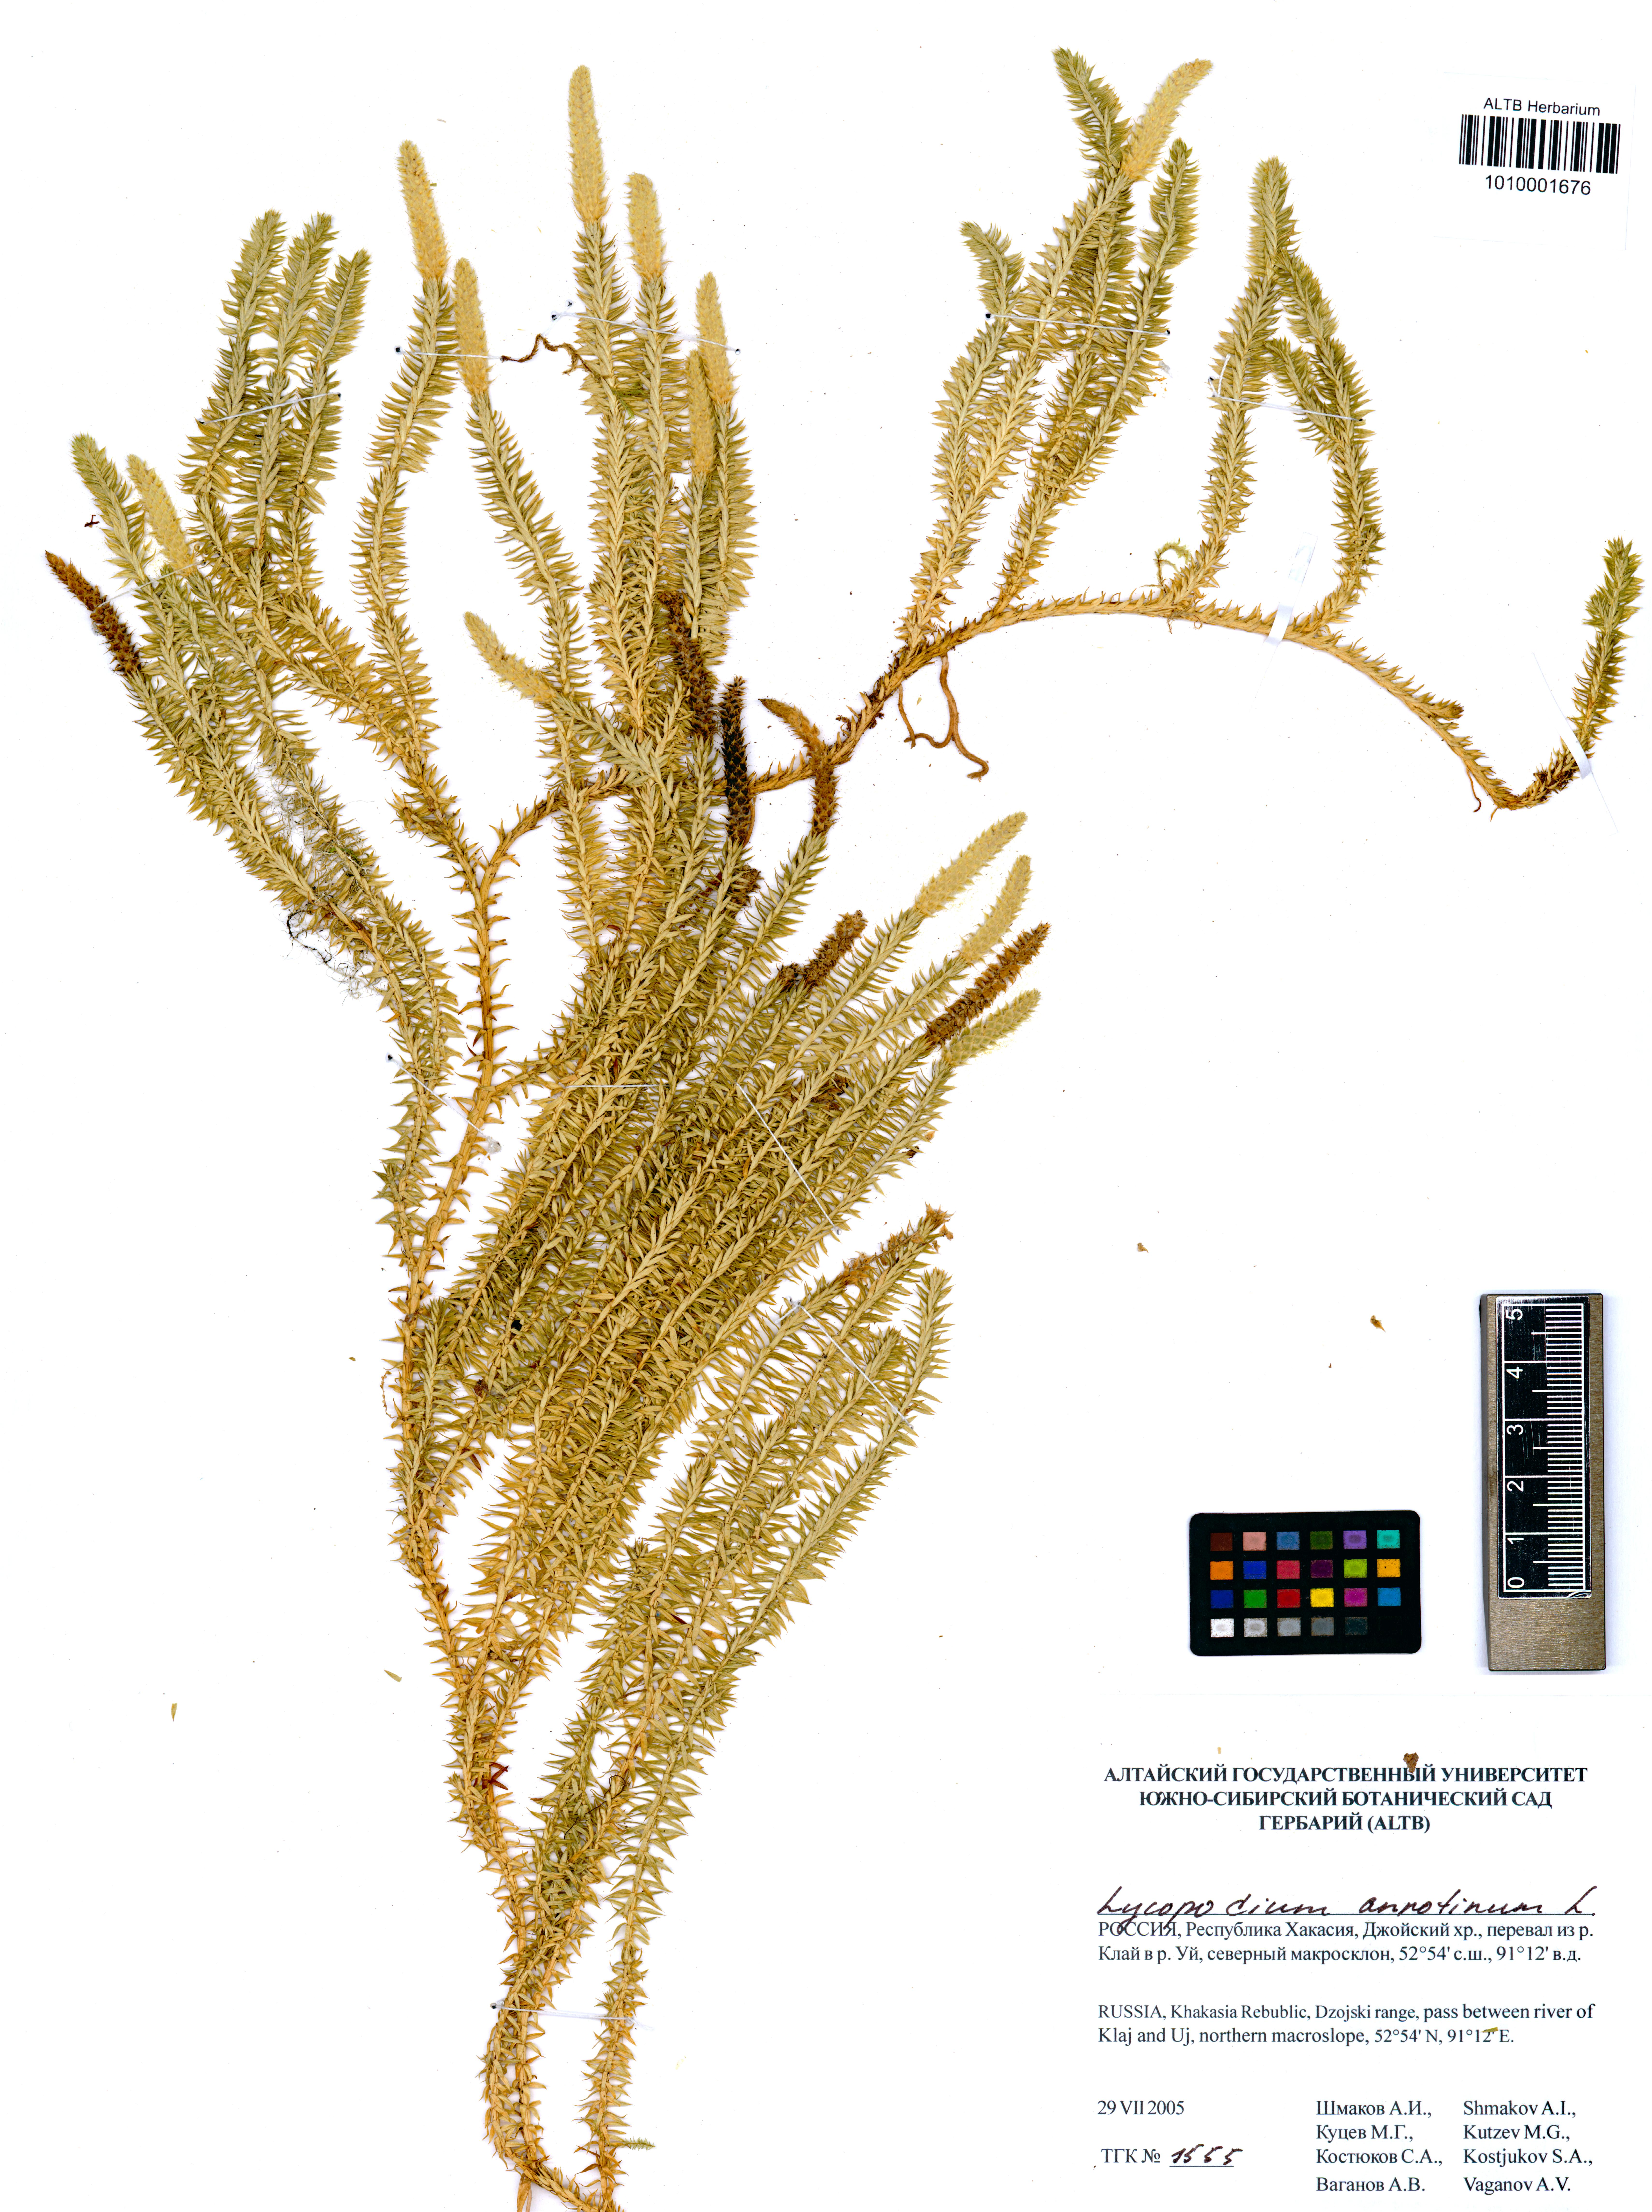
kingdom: Plantae
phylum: Tracheophyta
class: Lycopodiopsida
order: Lycopodiales
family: Lycopodiaceae
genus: Spinulum
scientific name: Spinulum annotinum
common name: Interrupted club-moss
